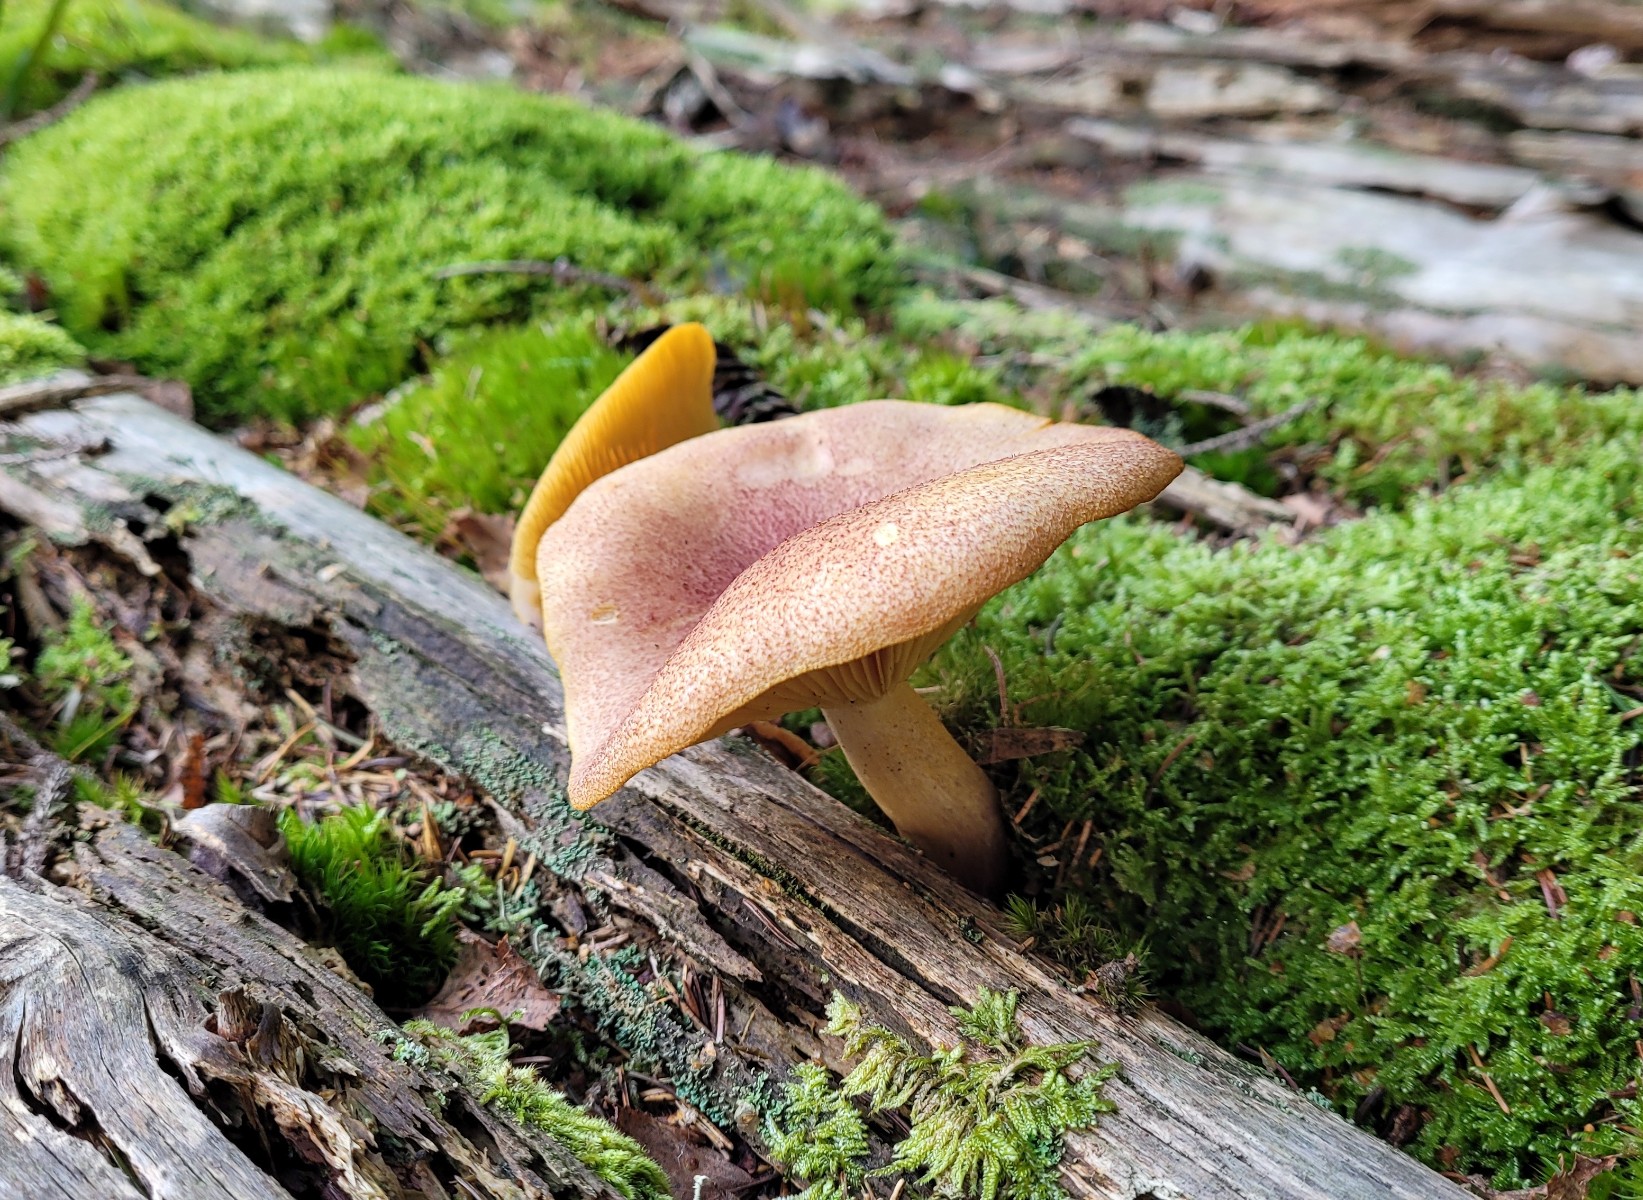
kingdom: Fungi
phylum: Basidiomycota
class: Agaricomycetes
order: Agaricales
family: Tricholomataceae
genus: Tricholomopsis
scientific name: Tricholomopsis rutilans
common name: purpur-væbnerhat
